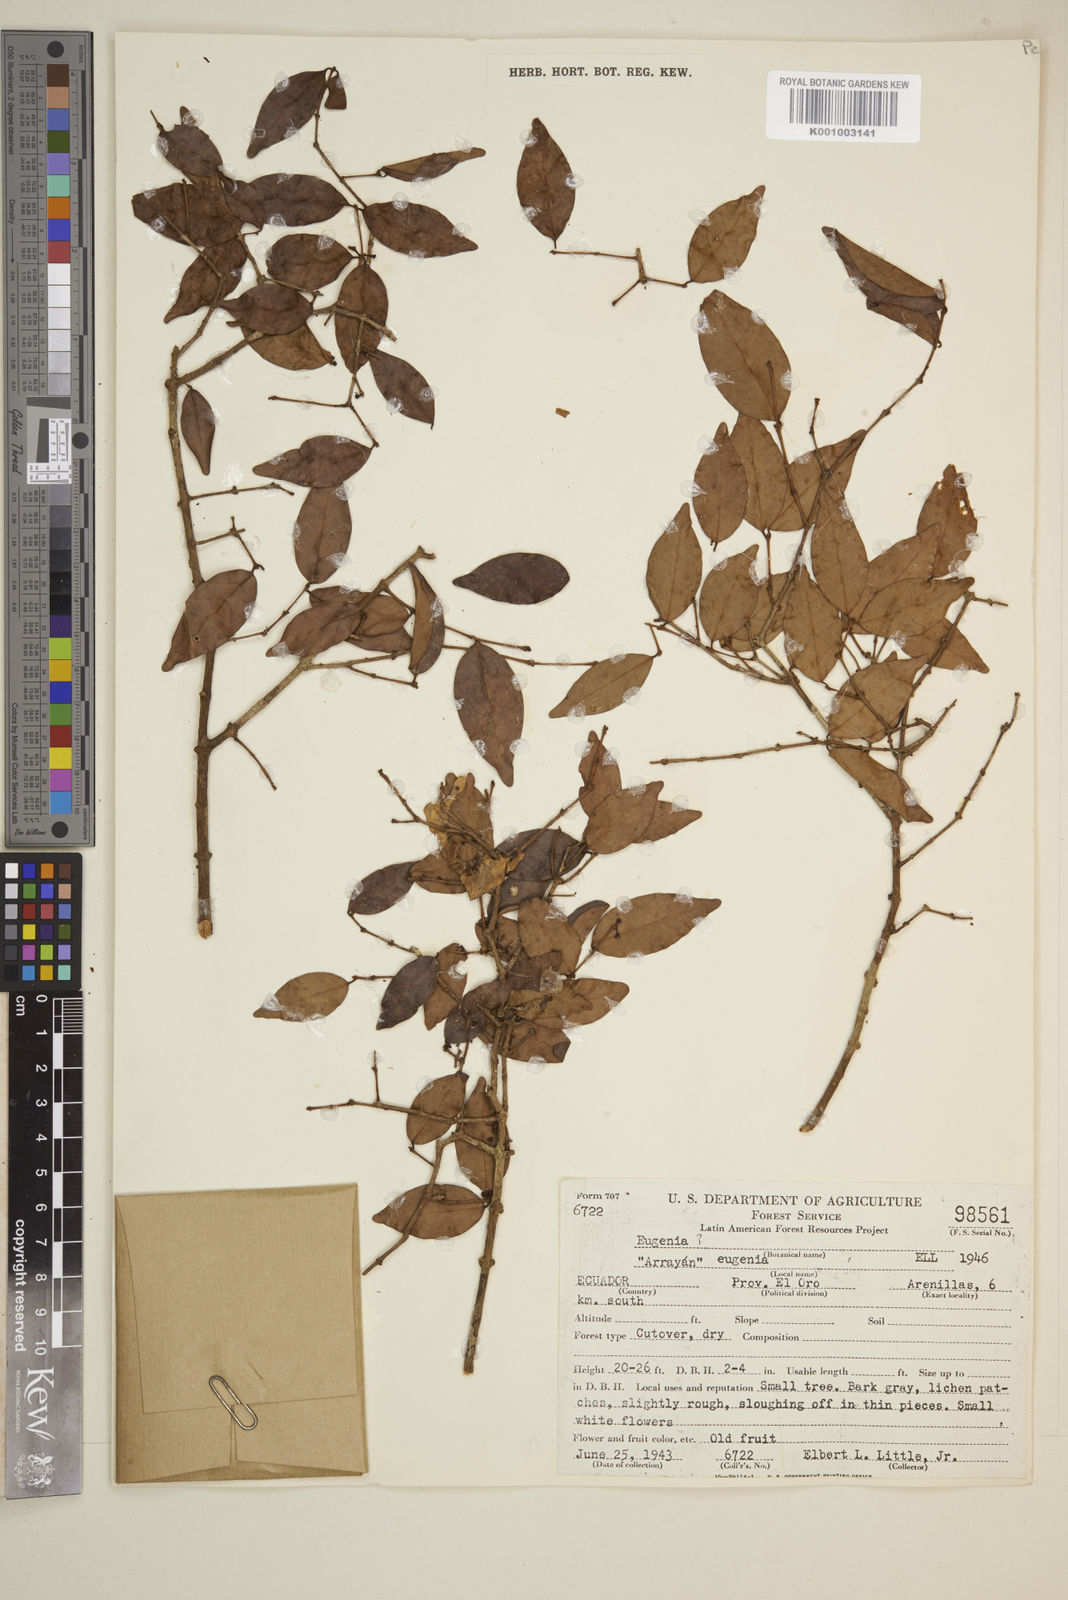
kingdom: Plantae
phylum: Tracheophyta
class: Magnoliopsida
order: Myrtales
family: Myrtaceae
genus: Eugenia
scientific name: Eugenia
